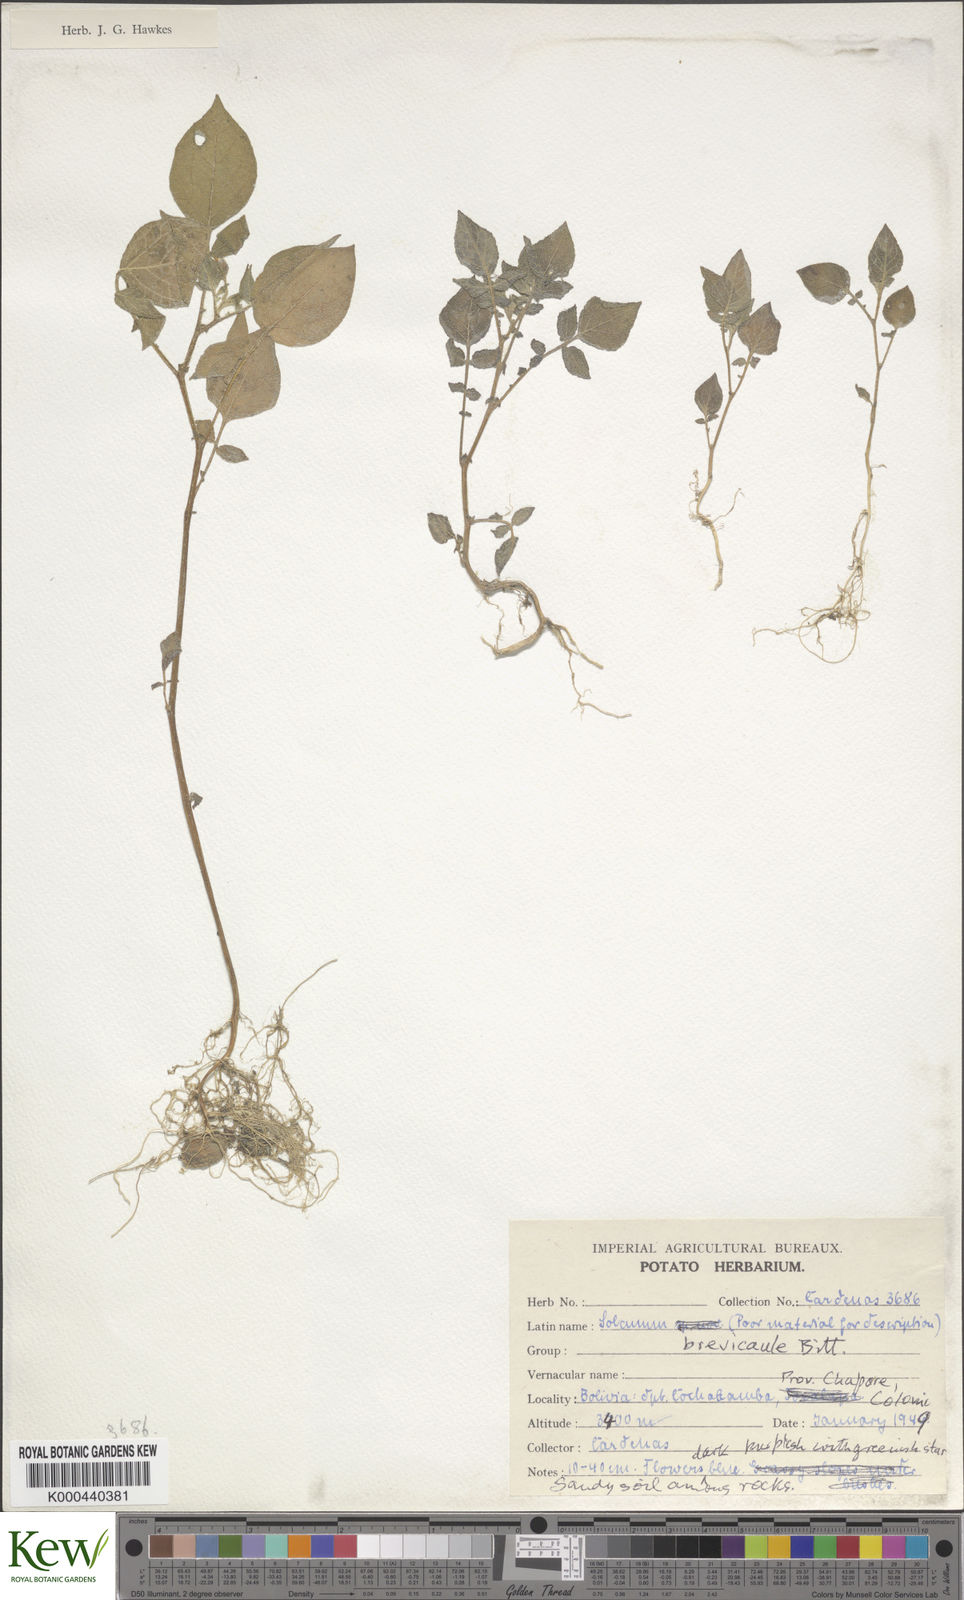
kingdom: Plantae
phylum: Tracheophyta
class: Magnoliopsida
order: Solanales
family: Solanaceae
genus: Solanum
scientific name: Solanum brevicaule
